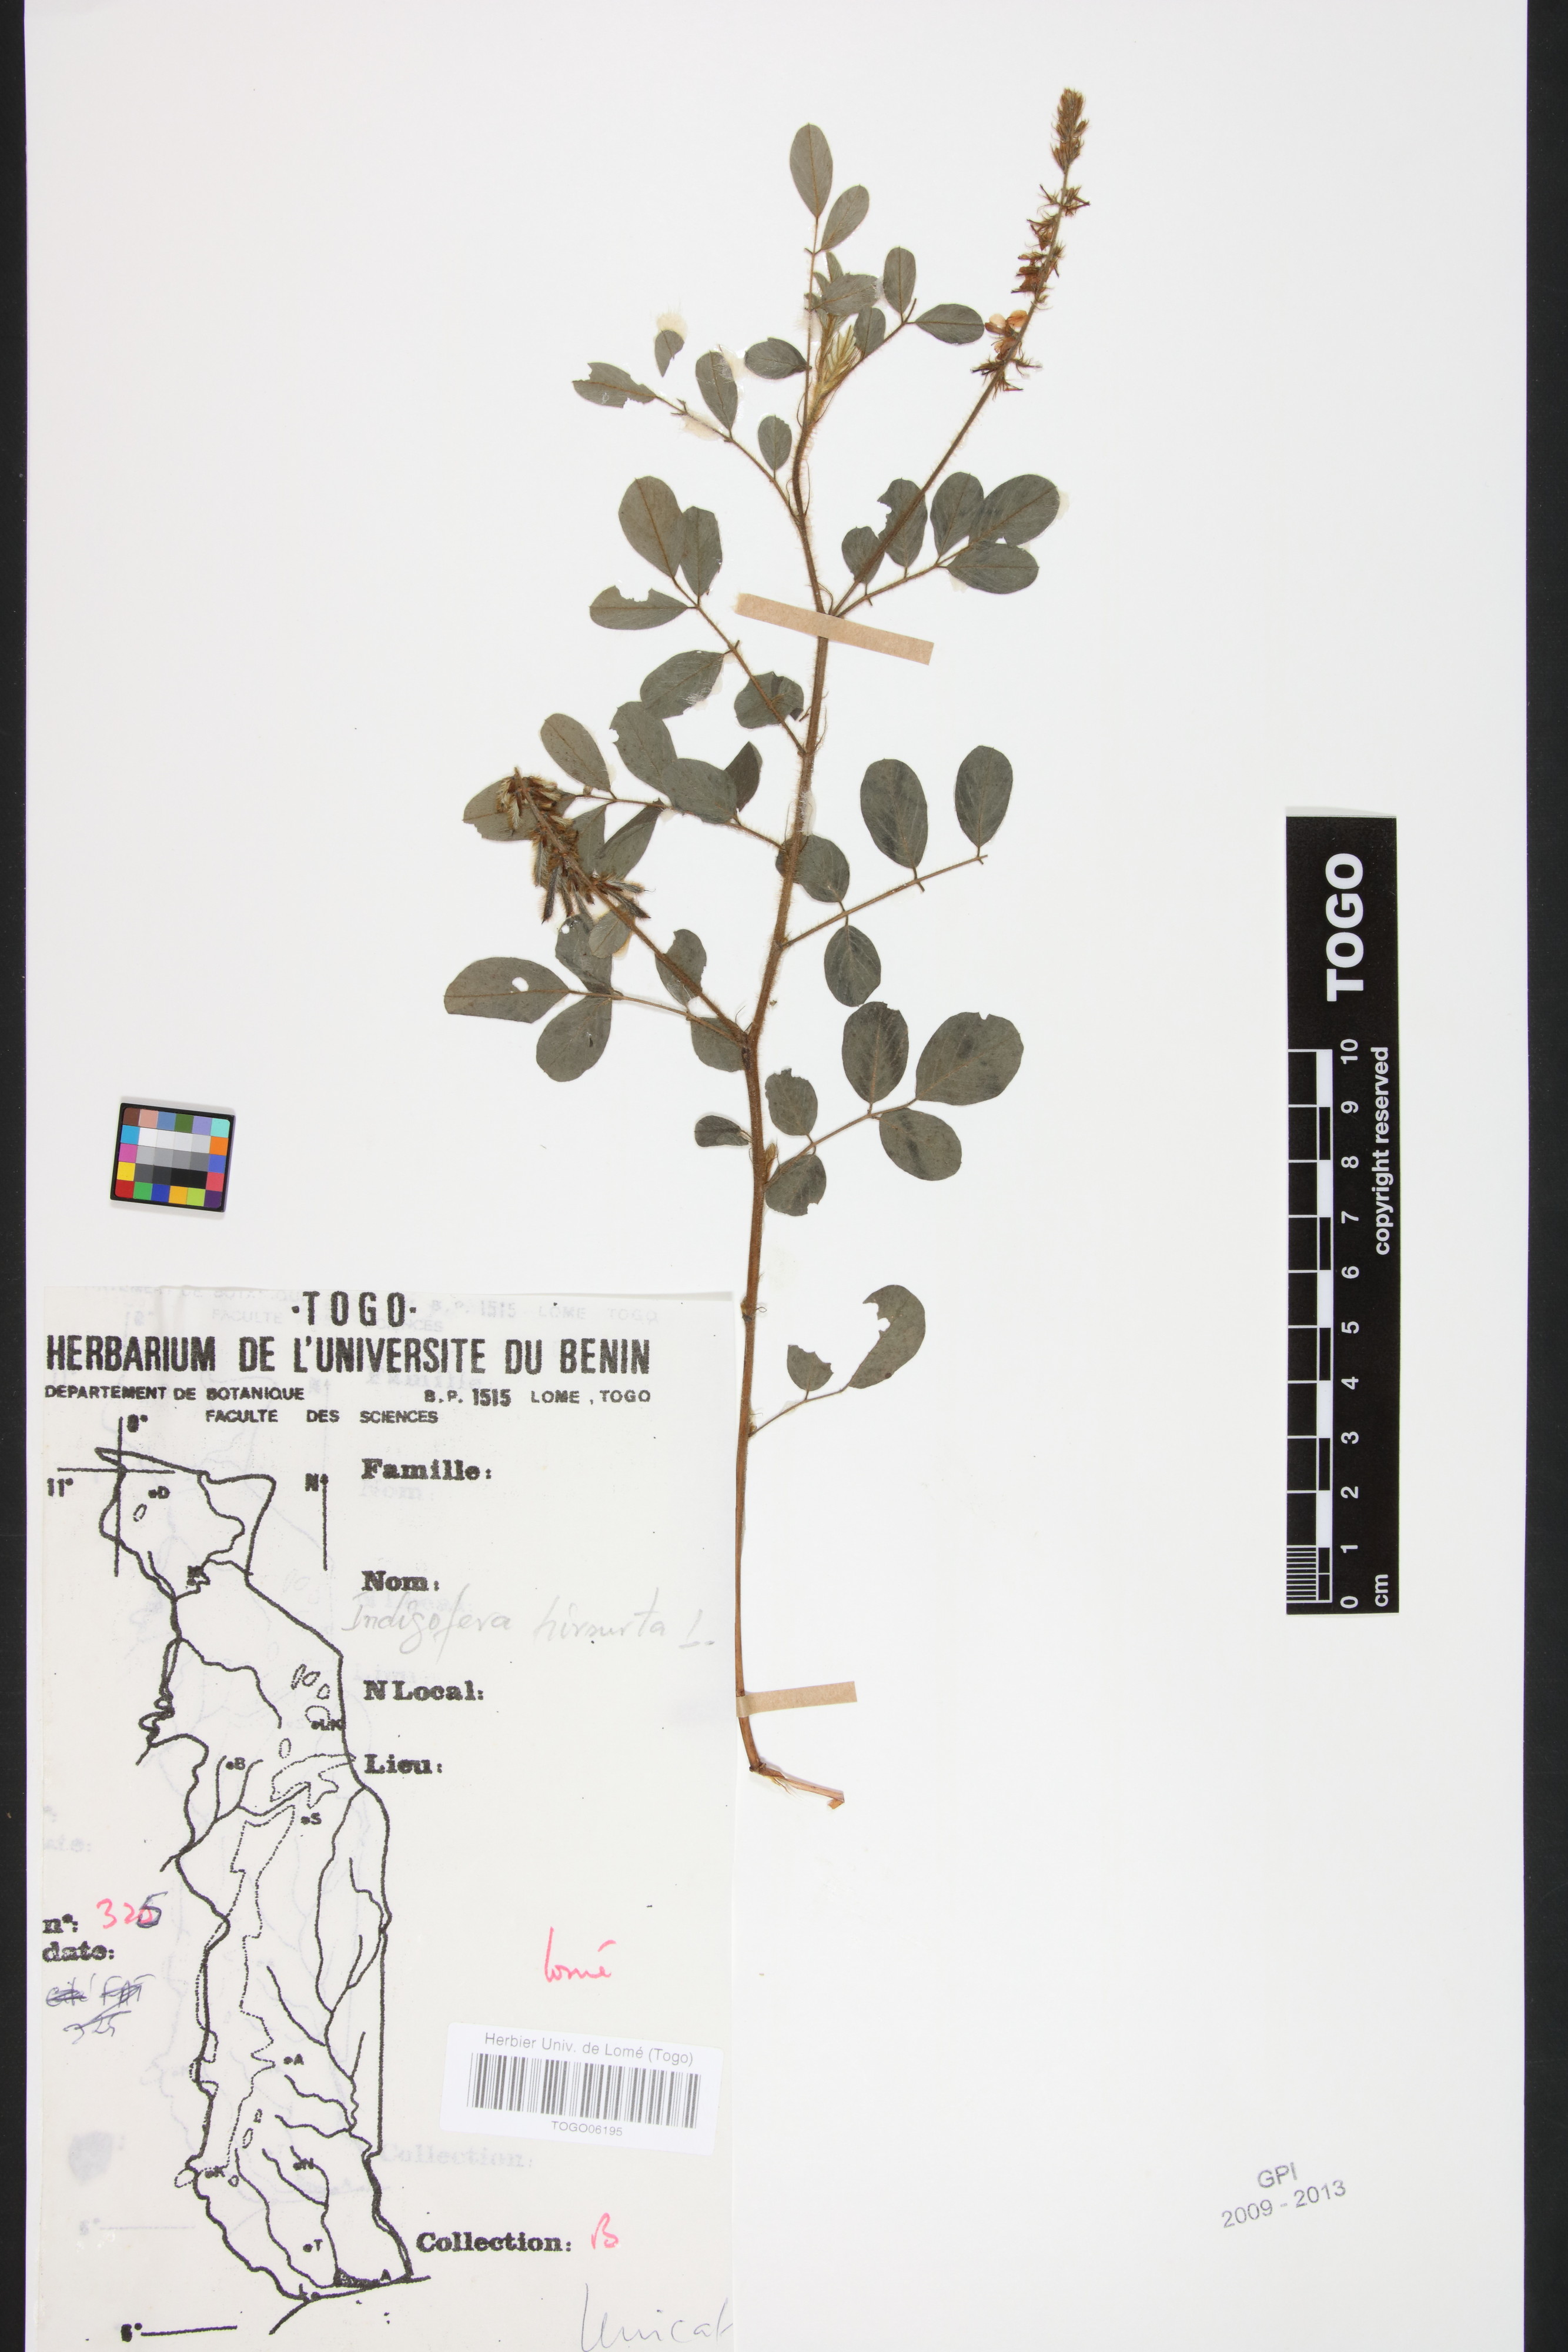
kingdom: Plantae
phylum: Tracheophyta
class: Magnoliopsida
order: Fabales
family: Fabaceae
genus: Indigofera
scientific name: Indigofera hirsuta
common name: Hairy indigo
